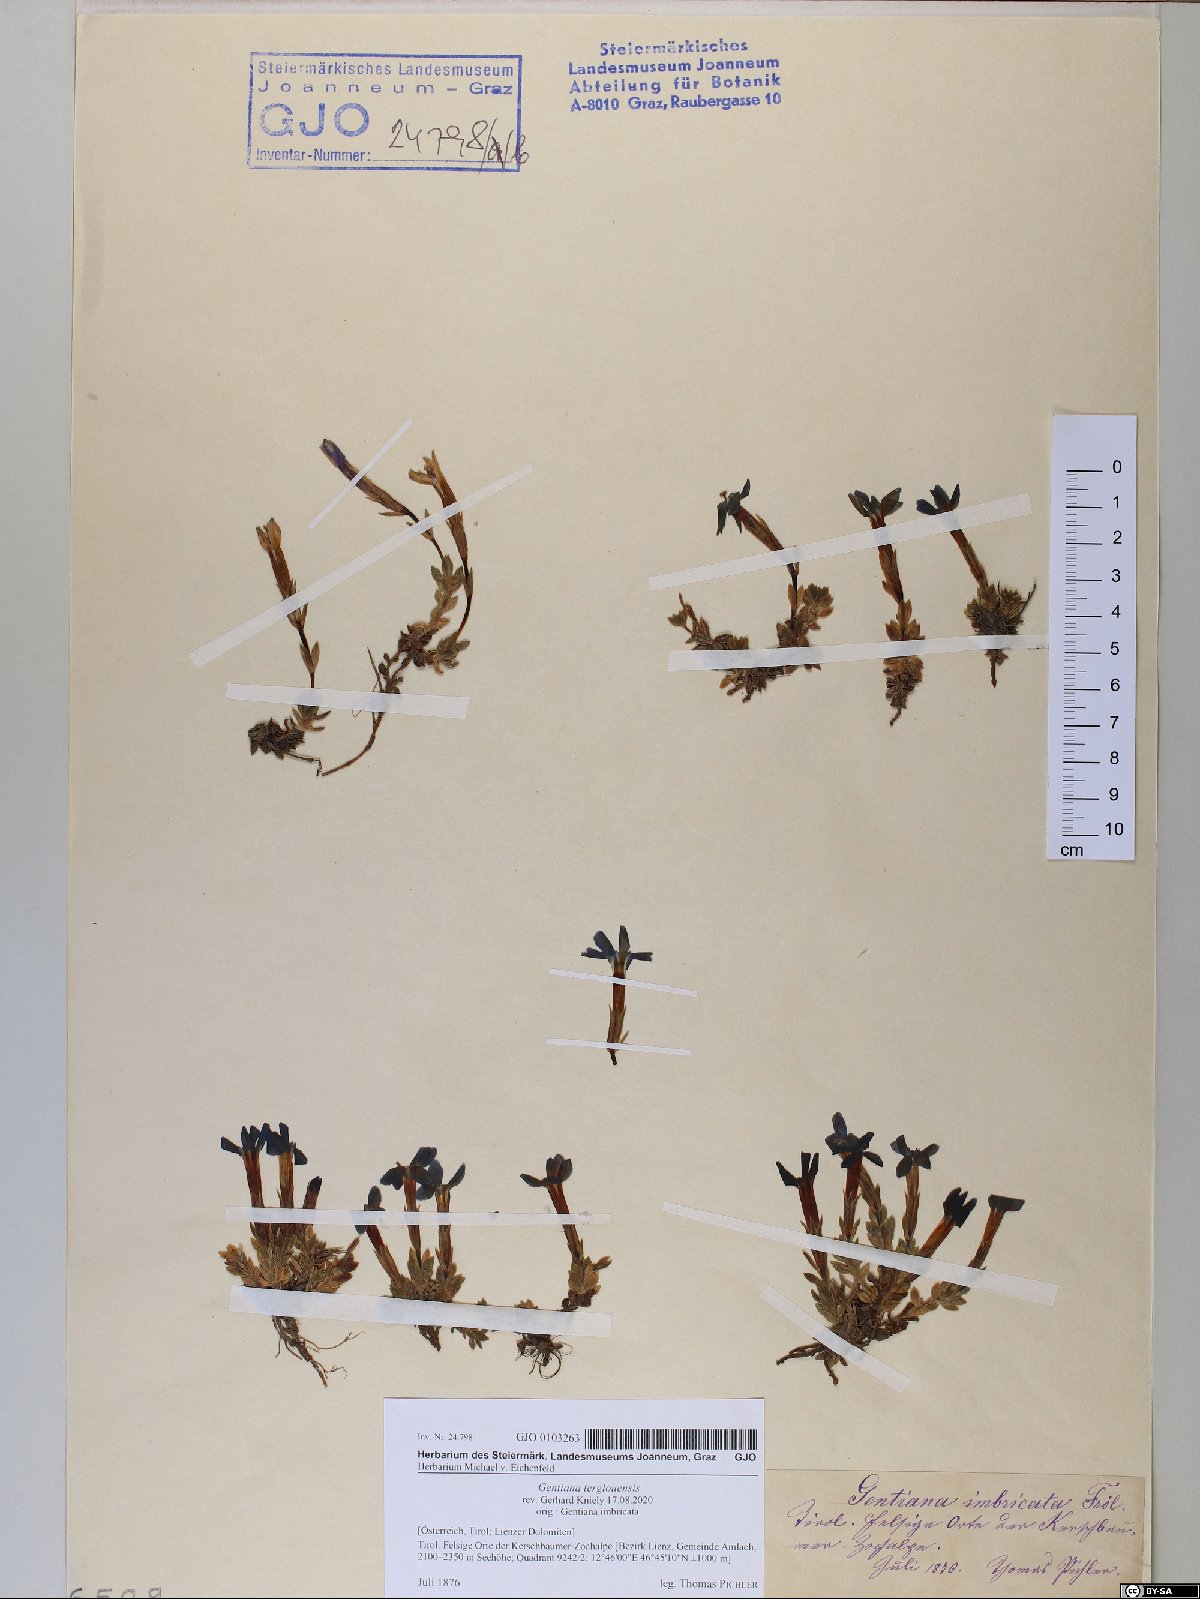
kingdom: Plantae
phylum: Tracheophyta
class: Magnoliopsida
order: Gentianales
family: Gentianaceae
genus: Gentiana
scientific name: Gentiana terglouensis
